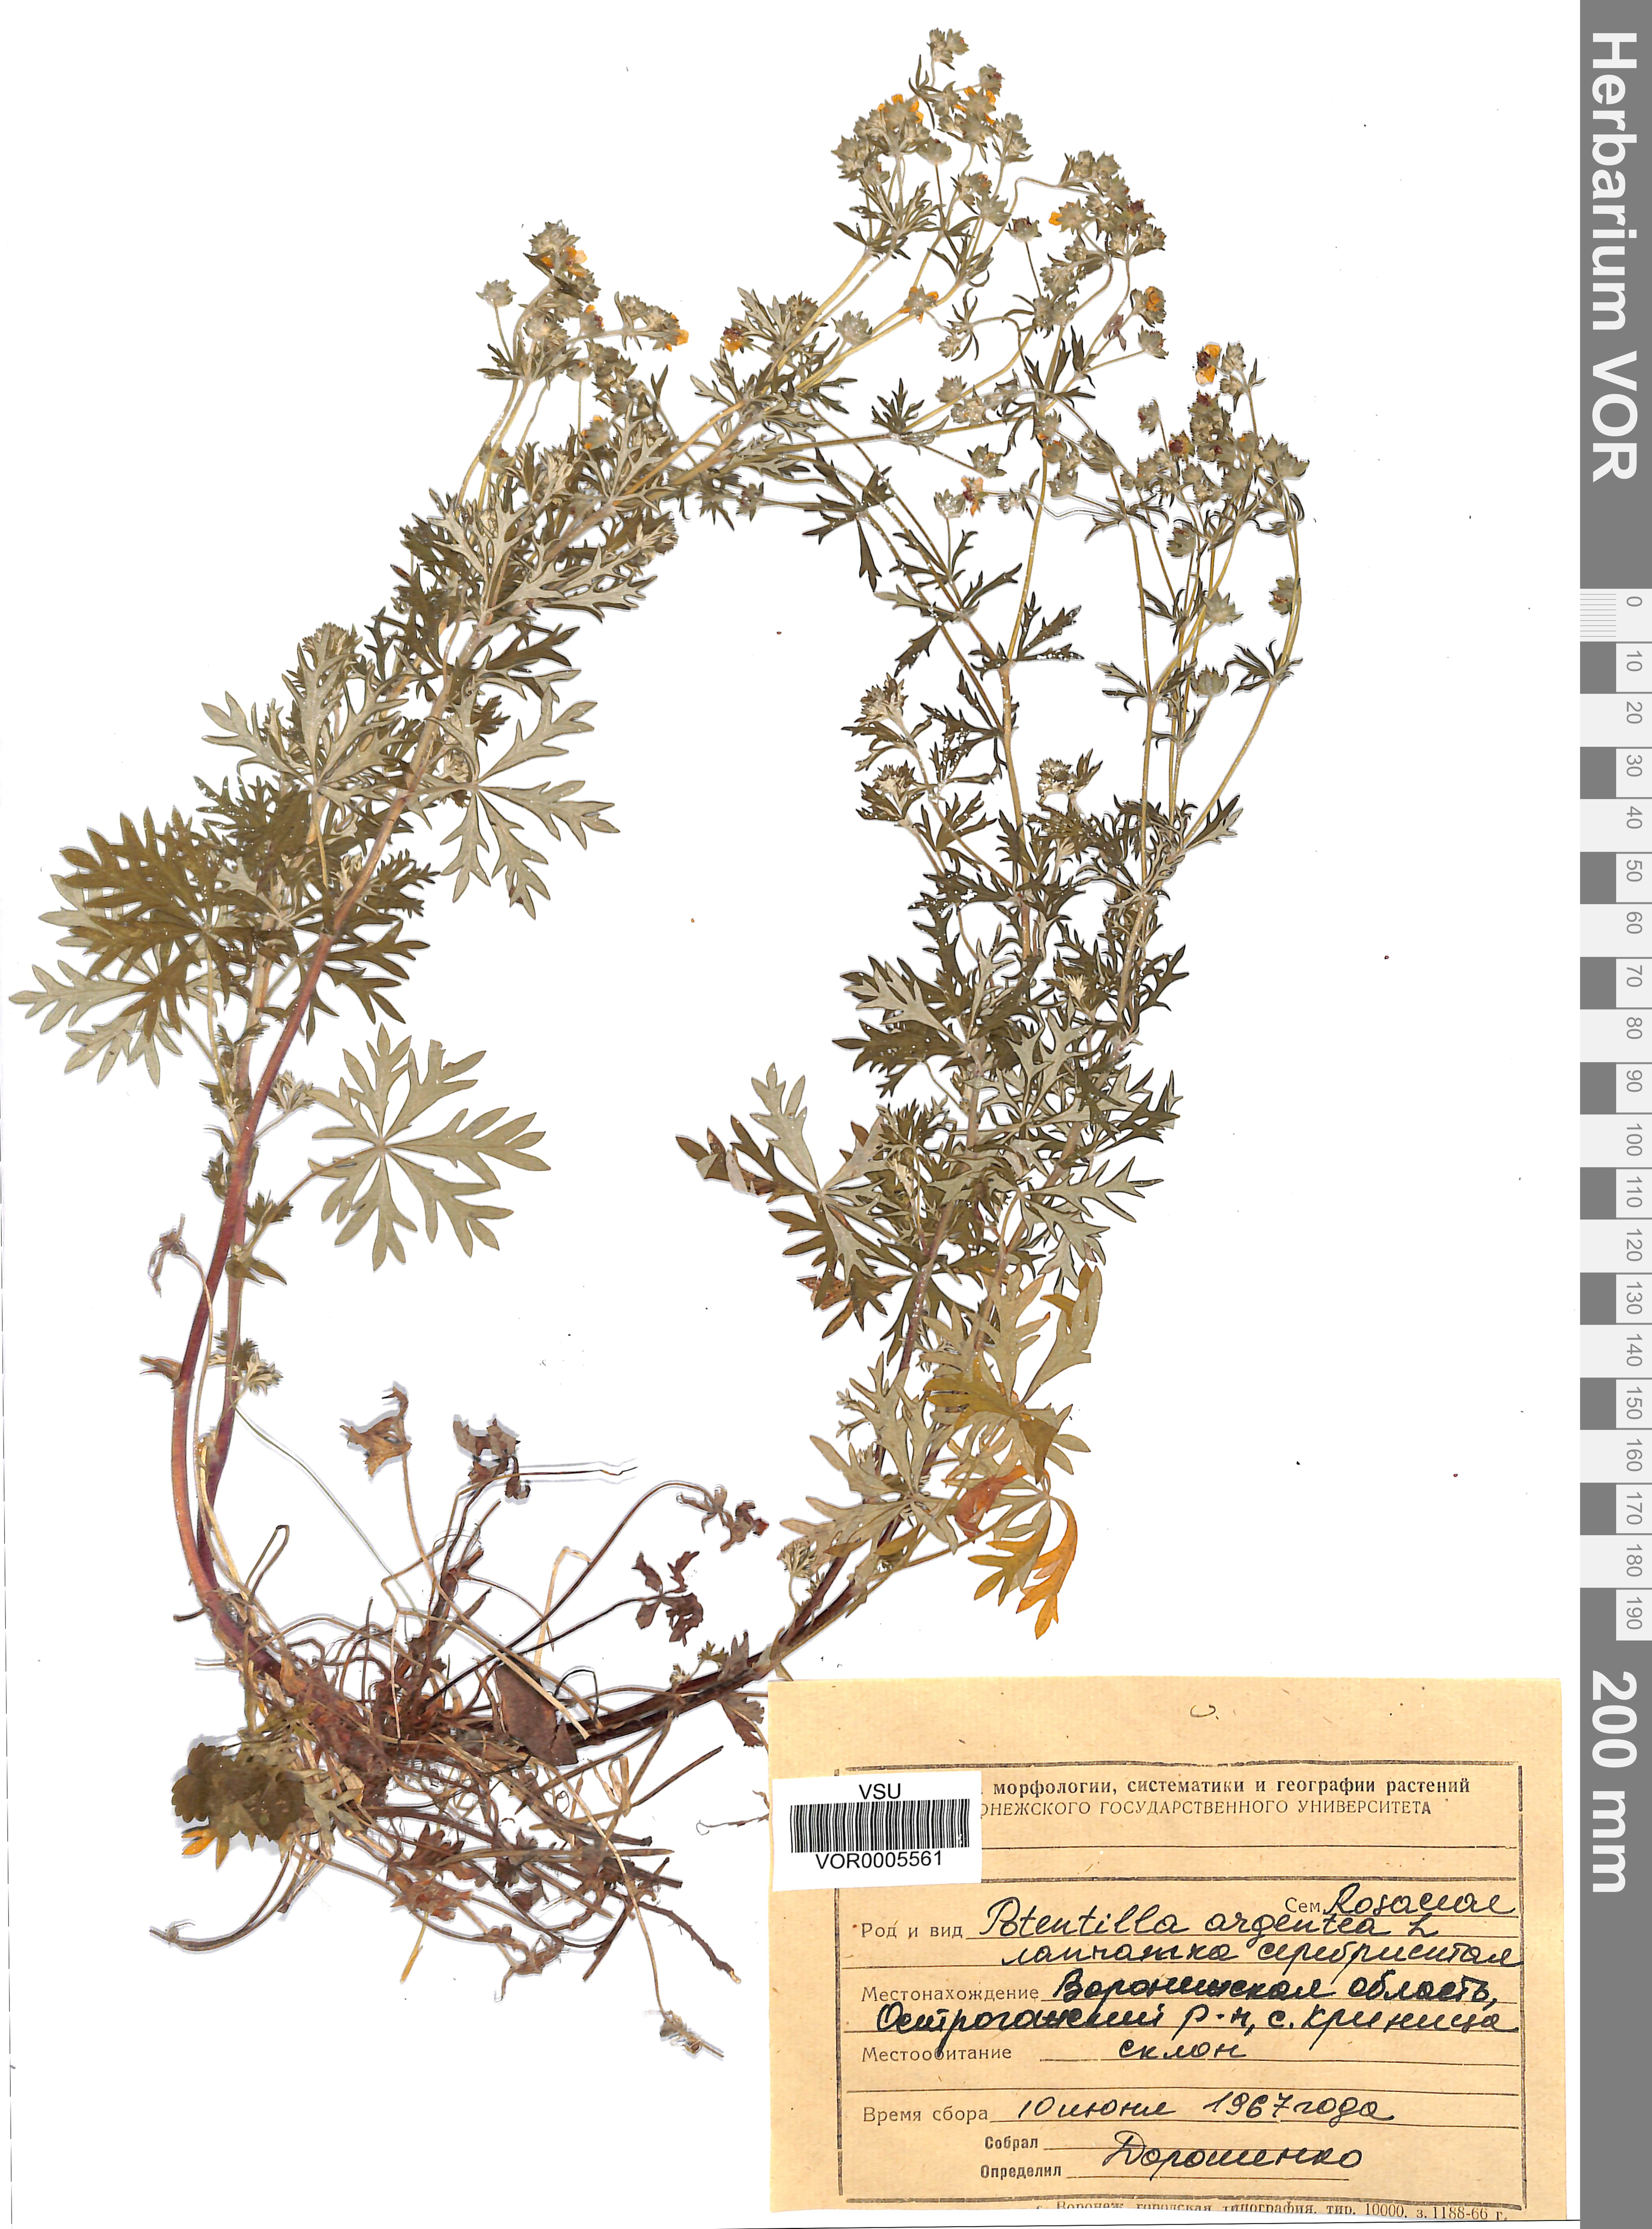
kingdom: Plantae
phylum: Tracheophyta
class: Magnoliopsida
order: Rosales
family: Rosaceae
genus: Potentilla
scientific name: Potentilla argentea
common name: Hoary cinquefoil
